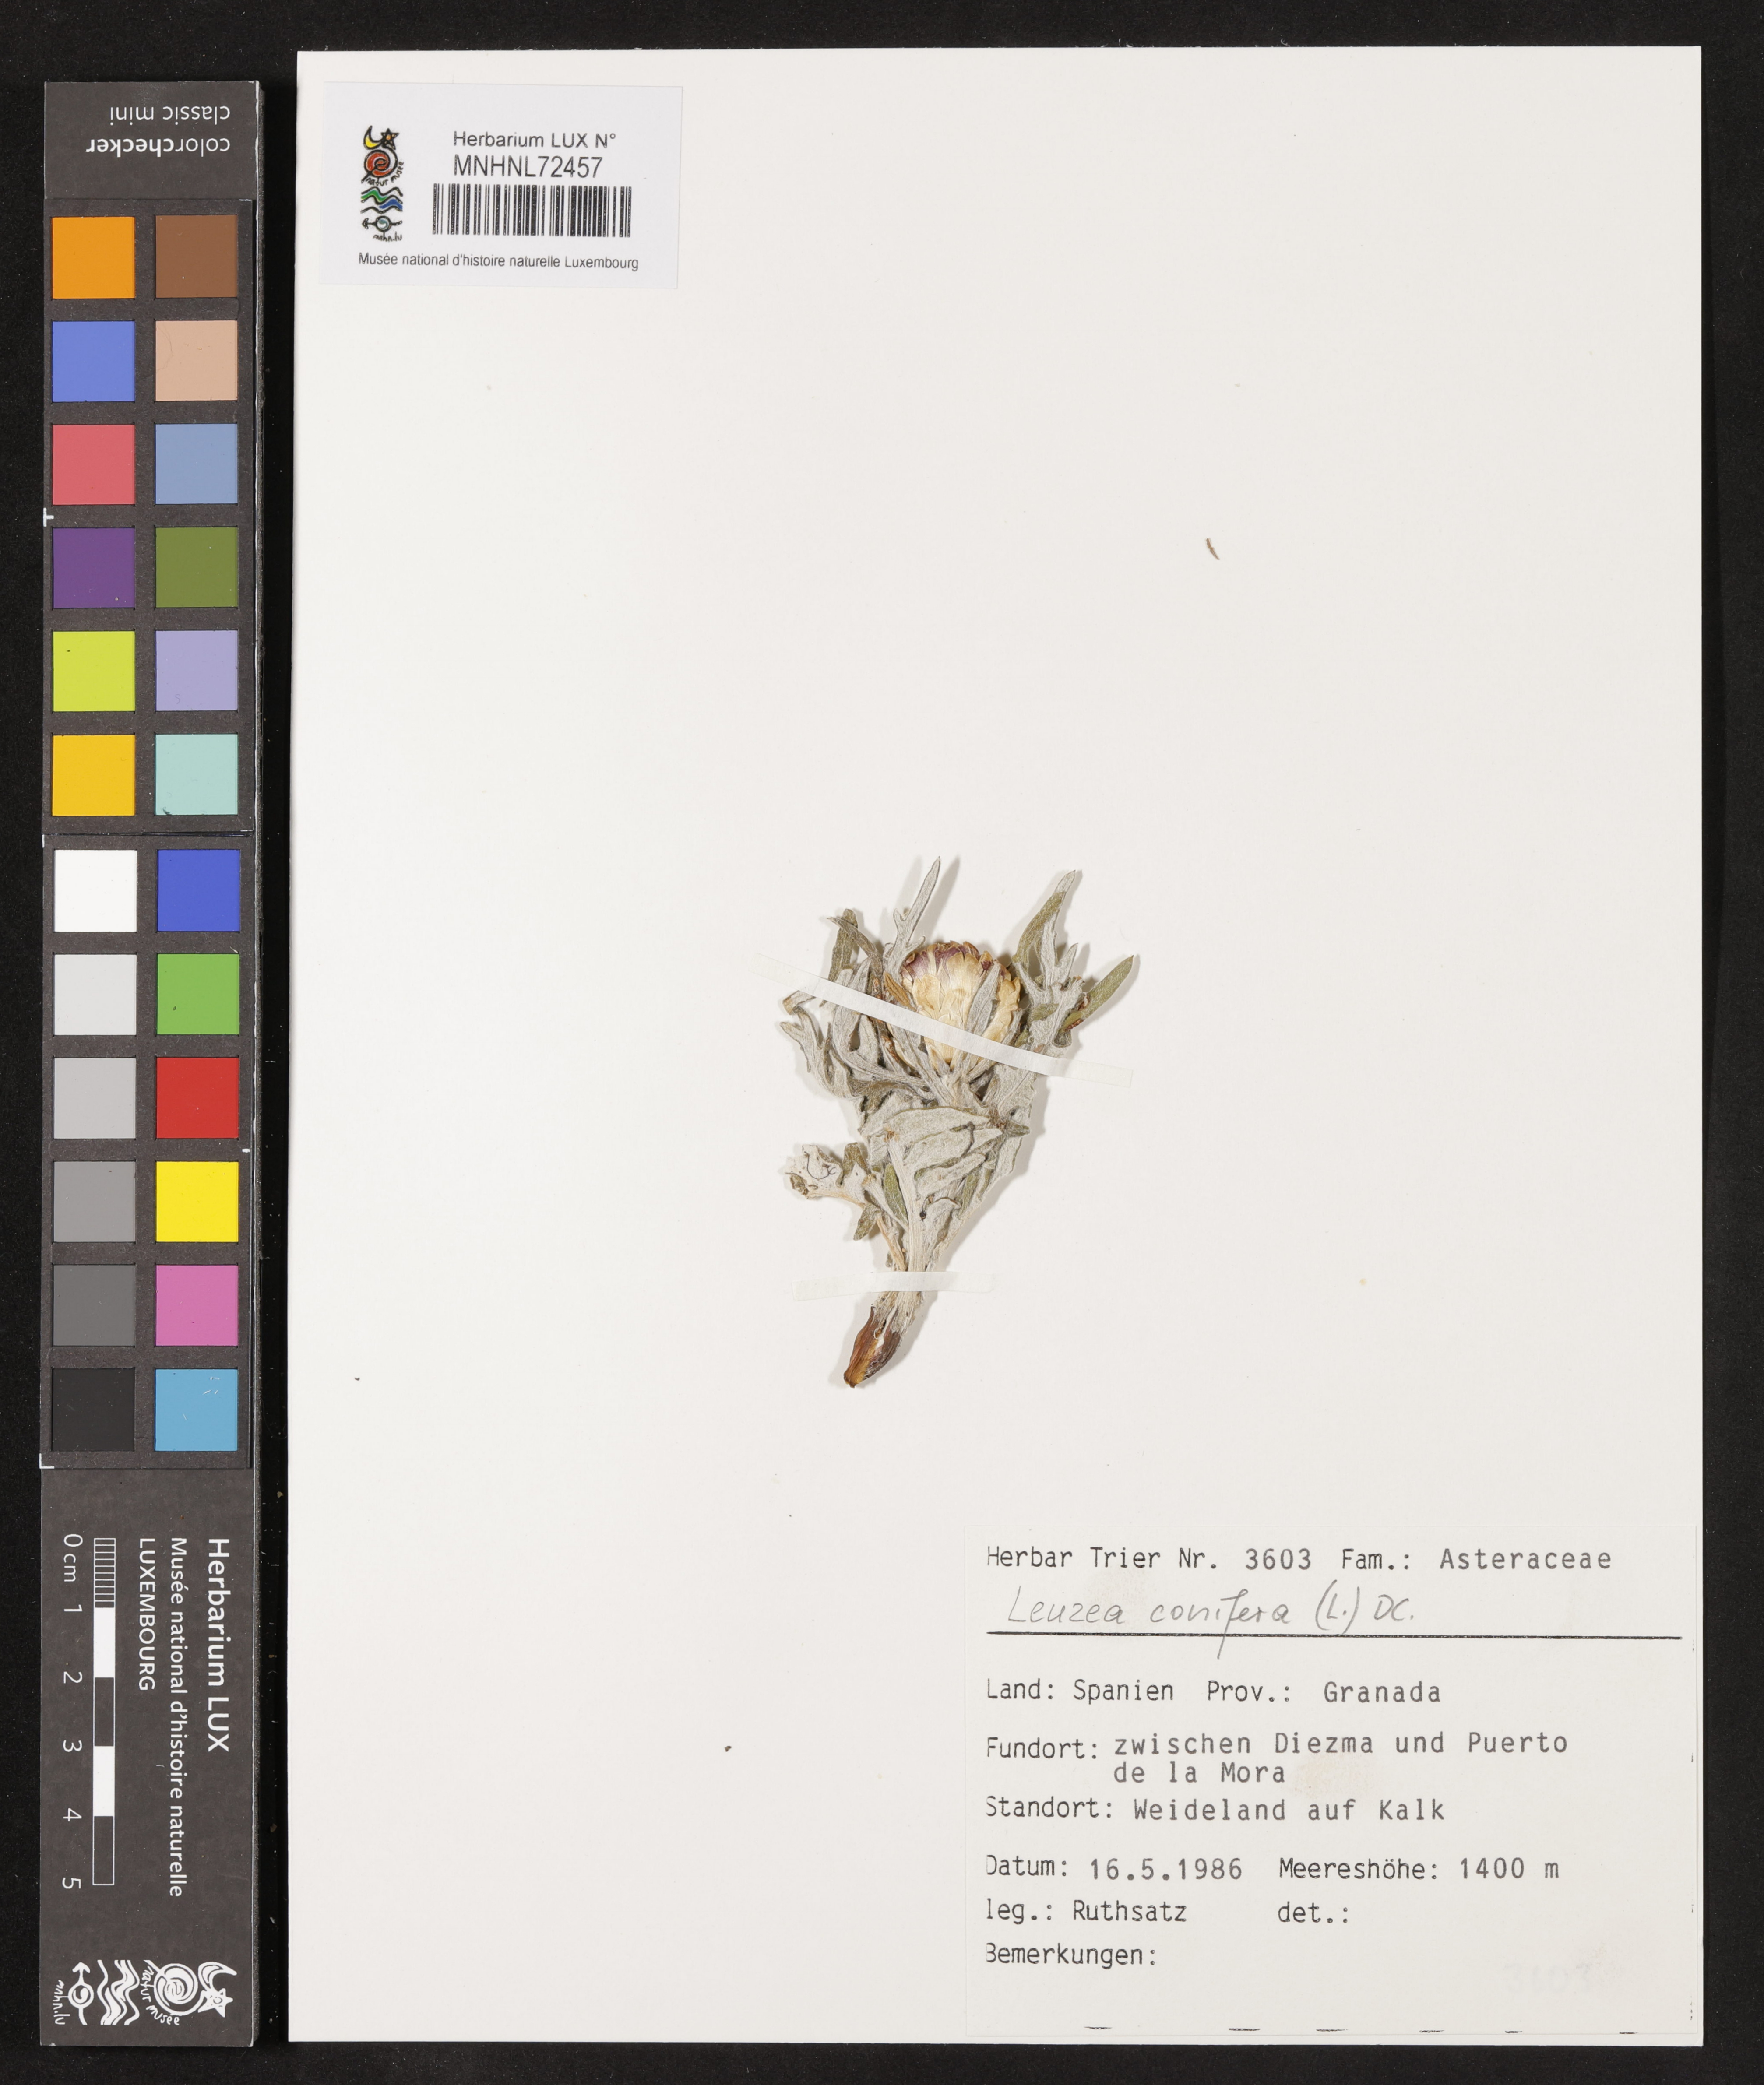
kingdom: Plantae
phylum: Tracheophyta
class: Magnoliopsida
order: Asterales
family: Asteraceae
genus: Leuzea
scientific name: Leuzea conifera
